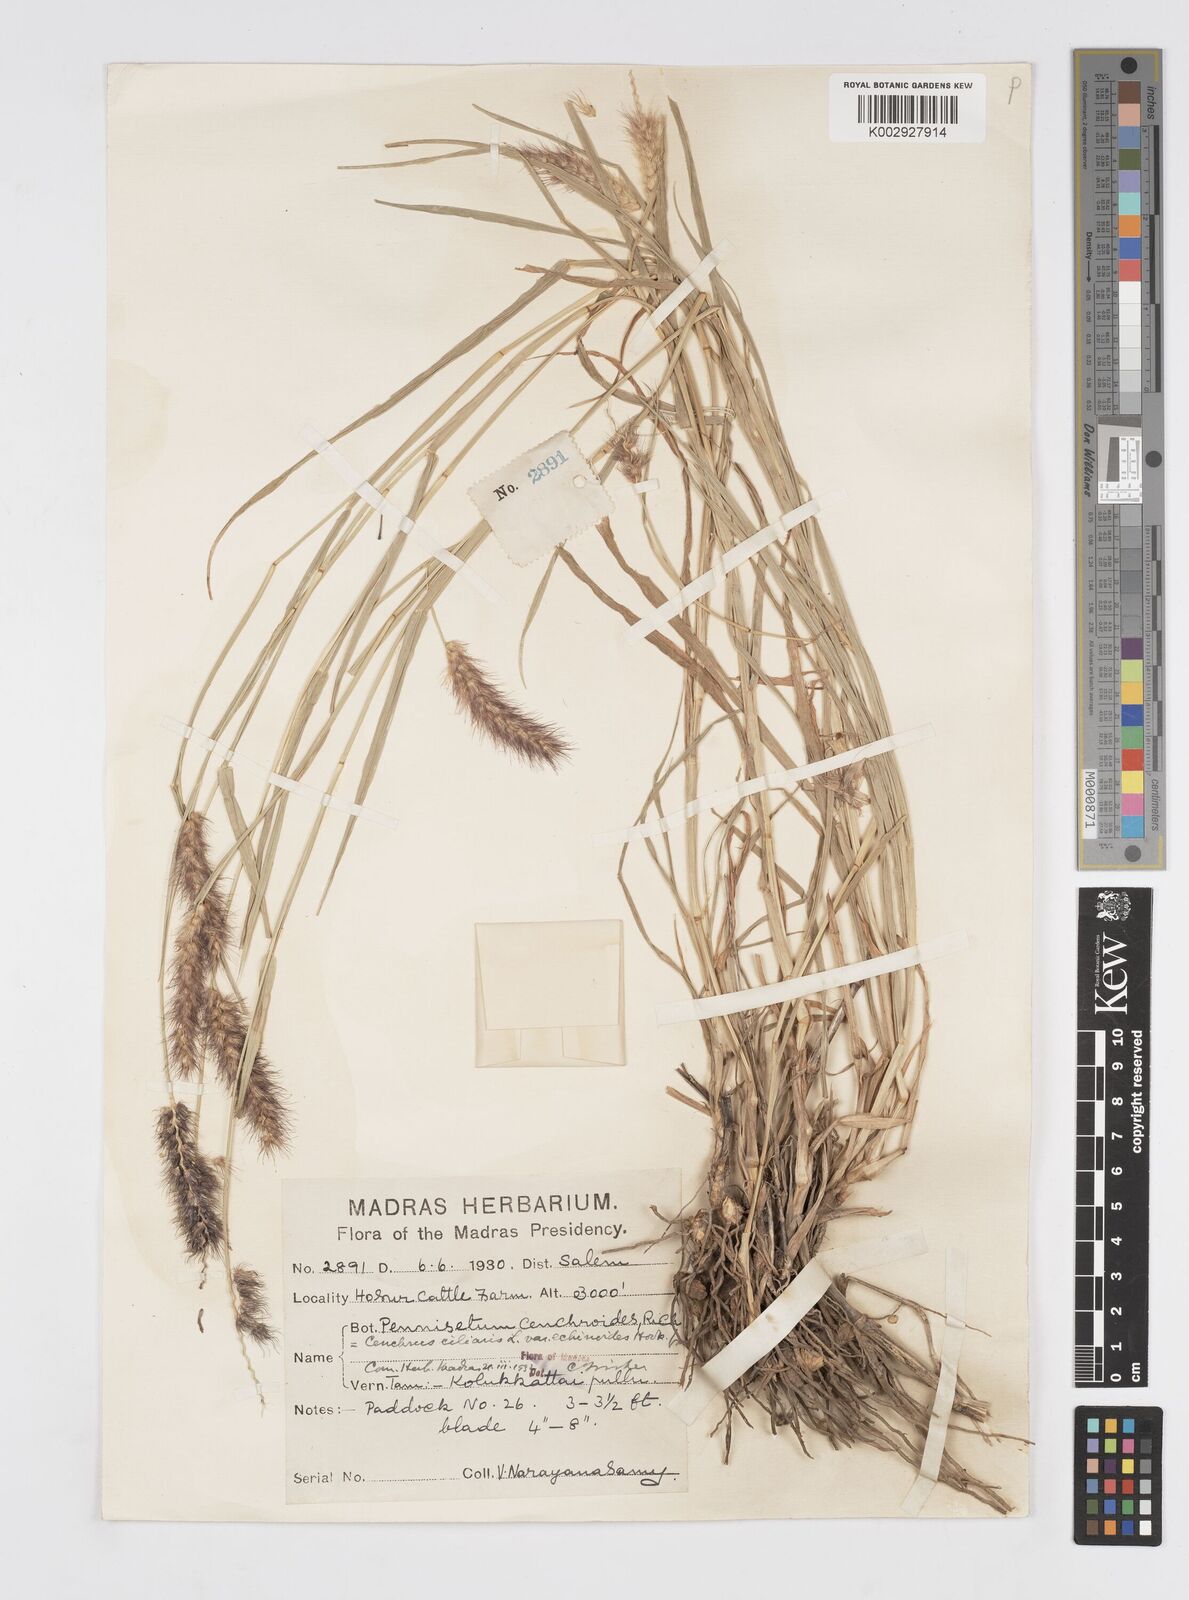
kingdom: Plantae
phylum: Tracheophyta
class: Liliopsida
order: Poales
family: Poaceae
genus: Cenchrus
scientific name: Cenchrus pennisetiformis
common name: Cloncurry
